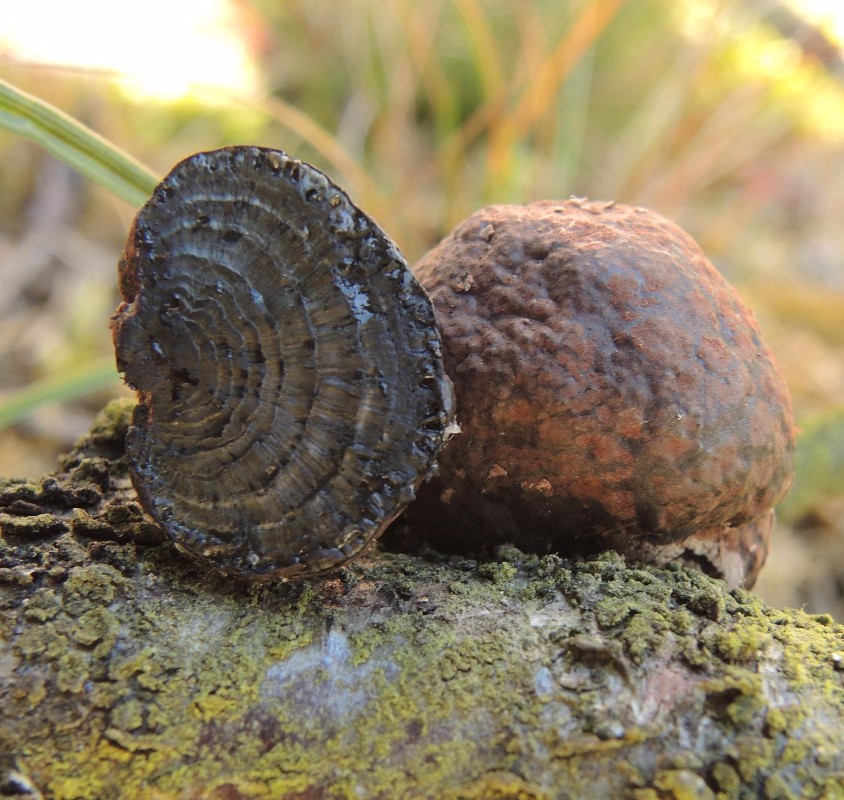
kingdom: Fungi
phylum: Ascomycota
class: Sordariomycetes
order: Xylariales
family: Hypoxylaceae
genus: Daldinia
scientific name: Daldinia lloydii
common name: brunskællet bæltekugle
